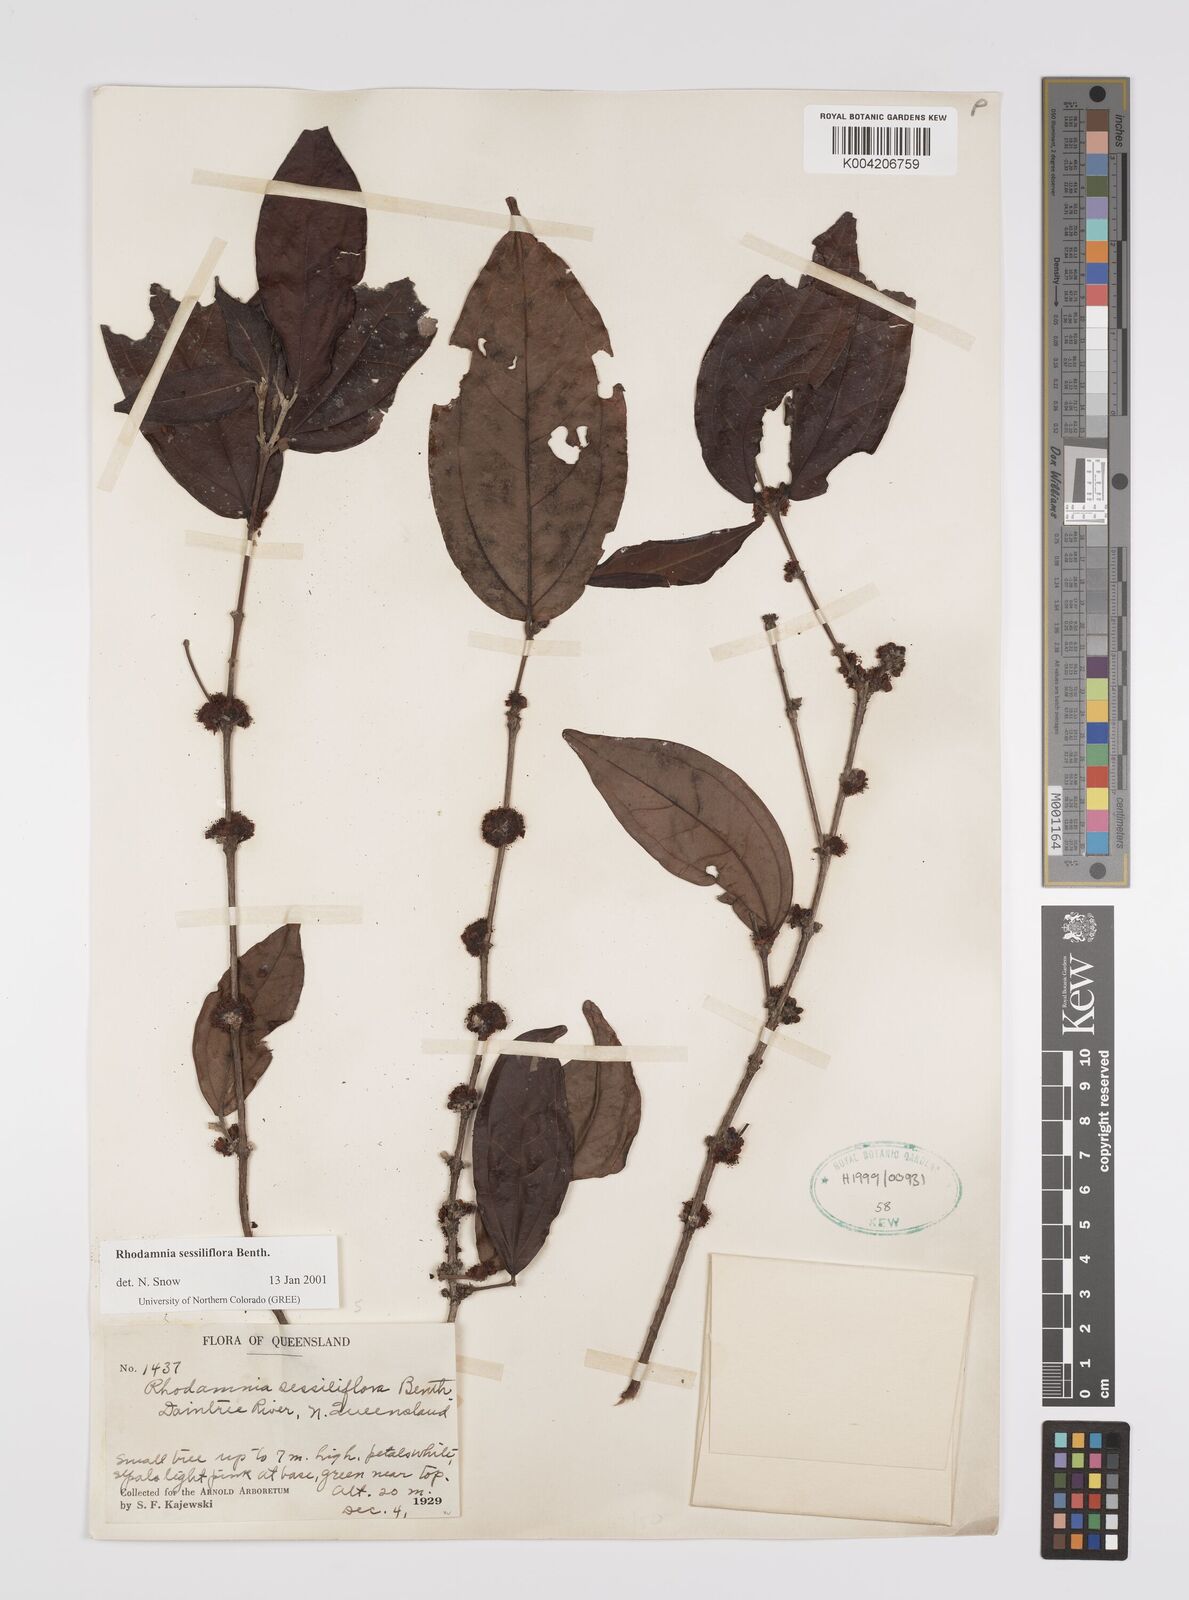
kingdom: Plantae
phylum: Tracheophyta
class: Magnoliopsida
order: Myrtales
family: Myrtaceae
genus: Rhodamnia
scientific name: Rhodamnia sessiliflora
